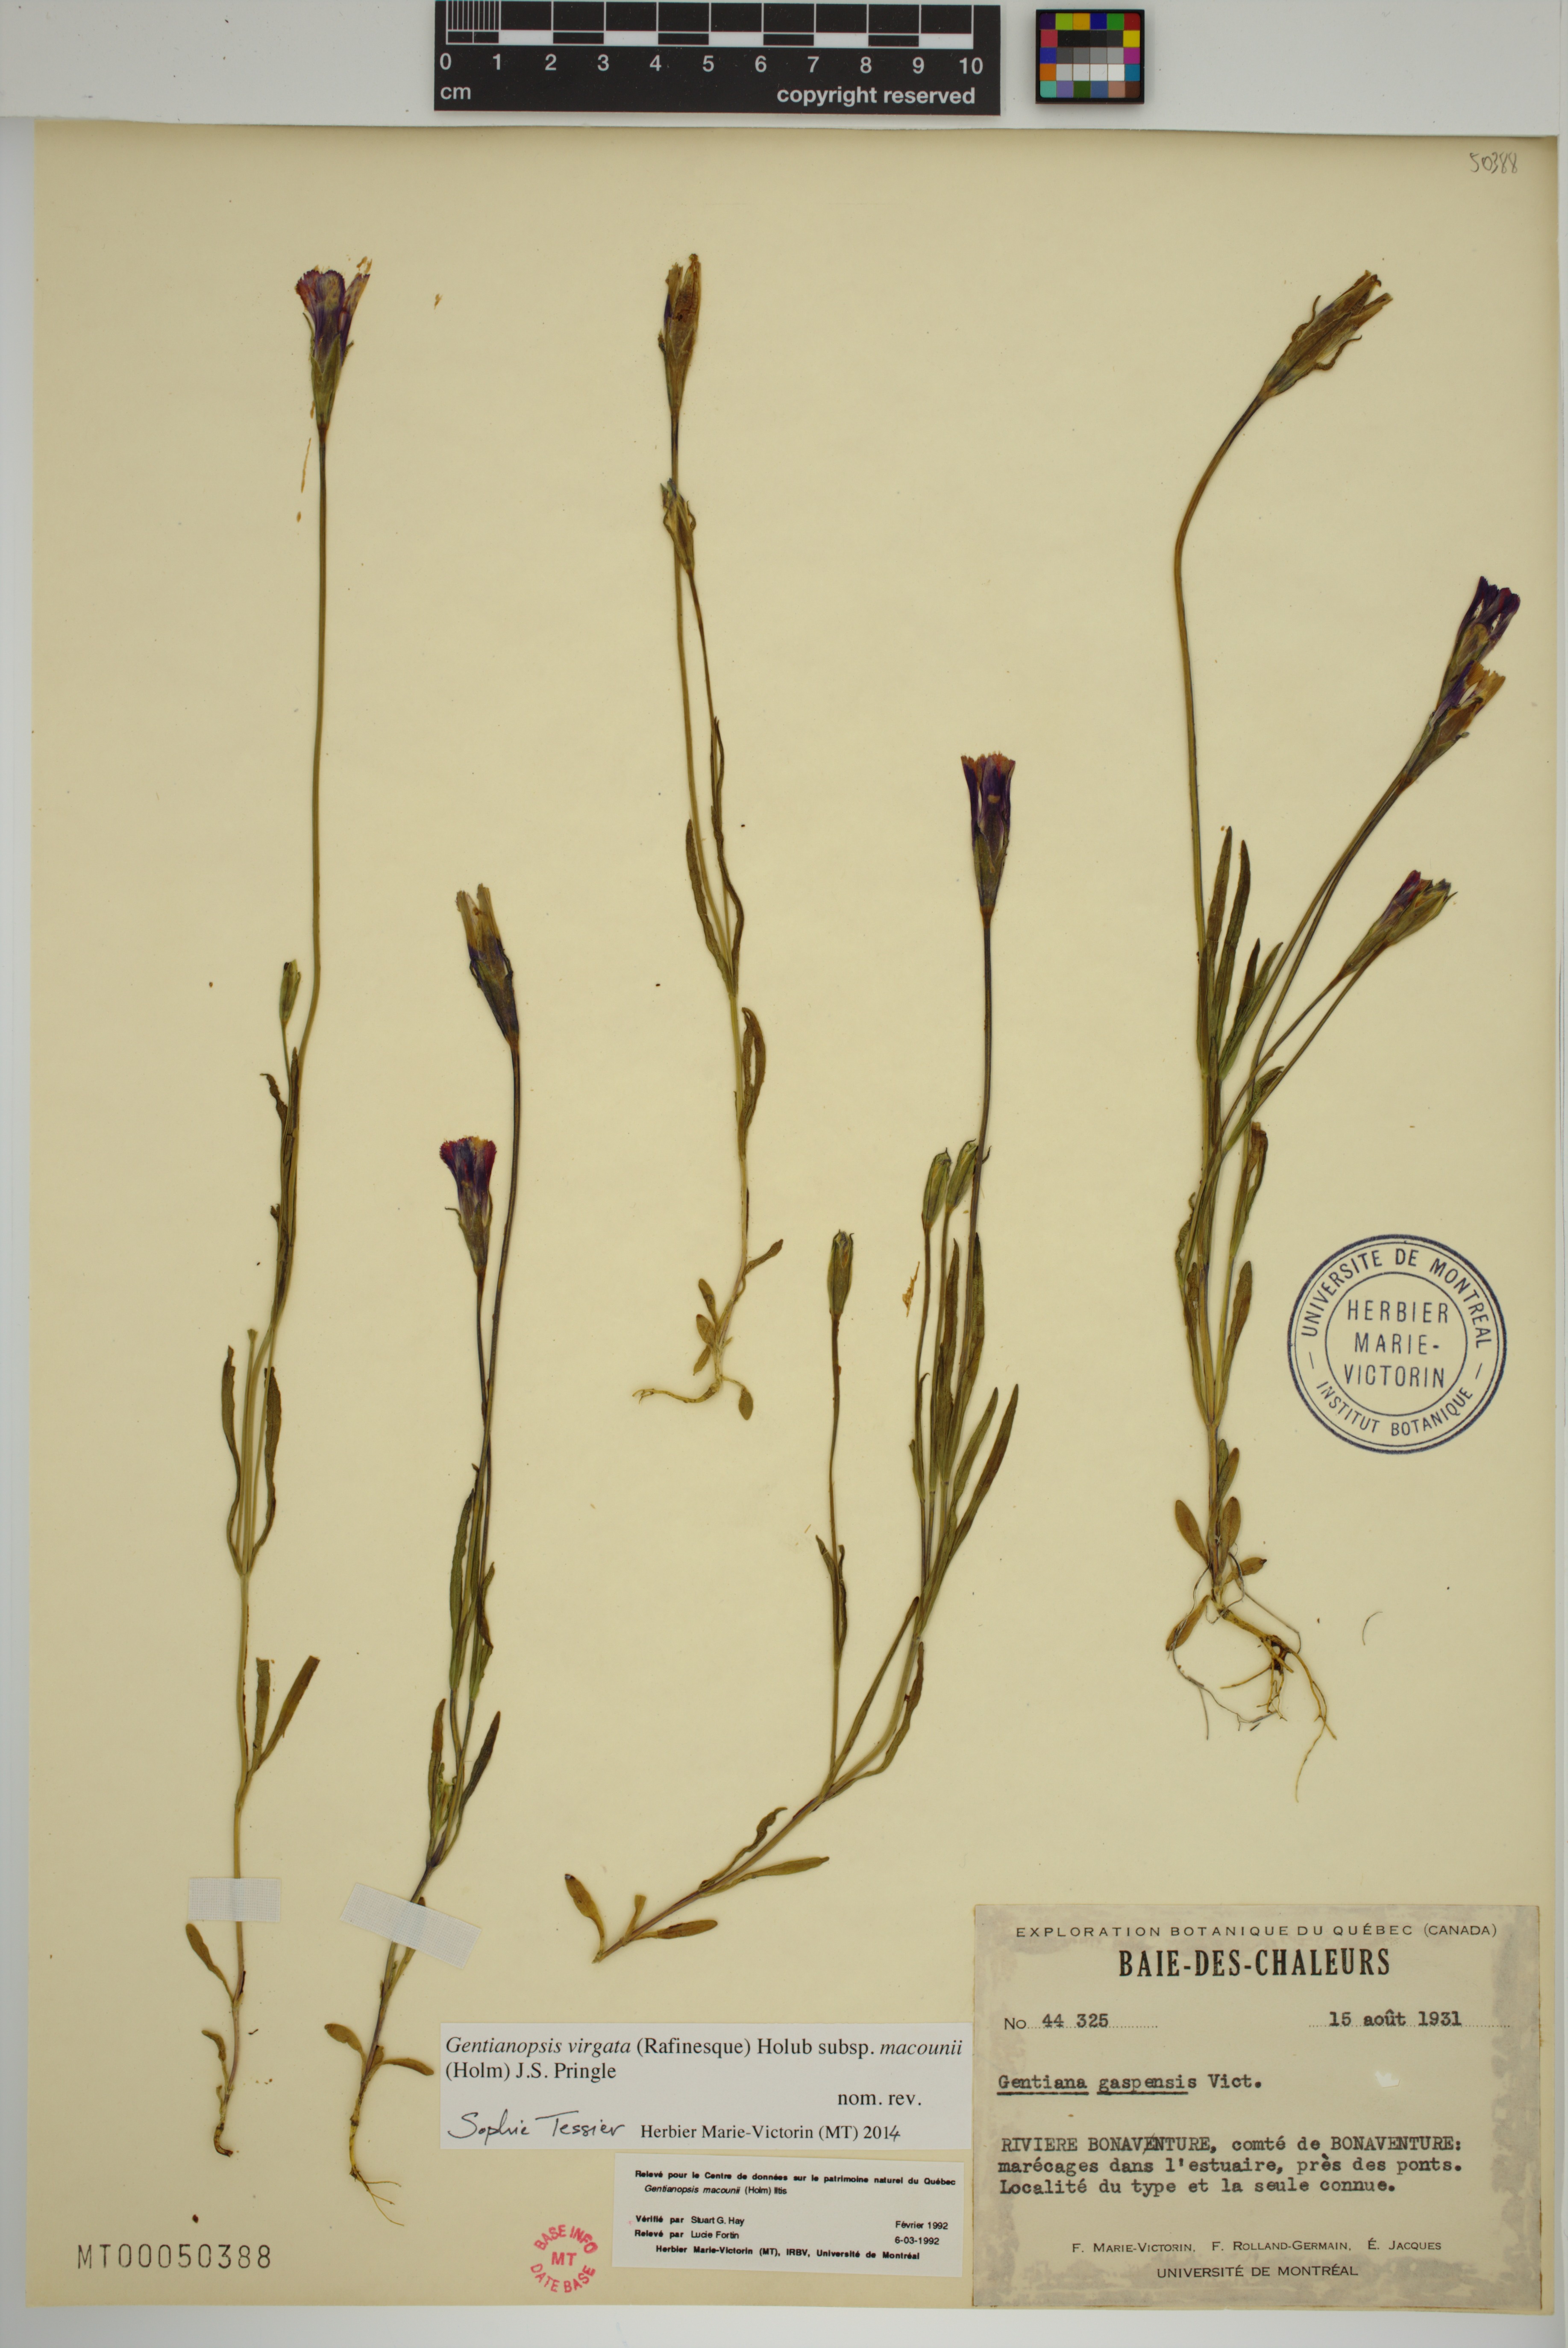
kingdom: Plantae
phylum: Tracheophyta
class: Magnoliopsida
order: Gentianales
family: Gentianaceae
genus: Gentianopsis
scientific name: Gentianopsis macounii
